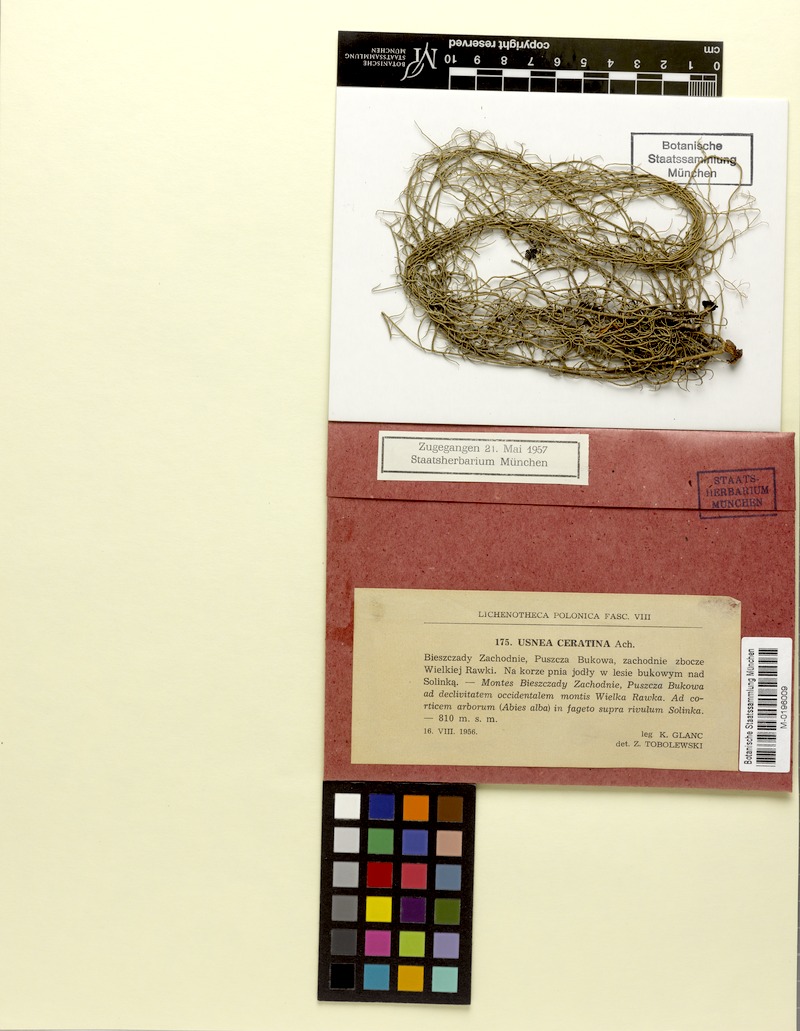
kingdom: Fungi
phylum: Ascomycota
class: Lecanoromycetes
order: Lecanorales
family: Parmeliaceae
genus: Usnea
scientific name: Usnea ceratina
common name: Warty beard lichen
